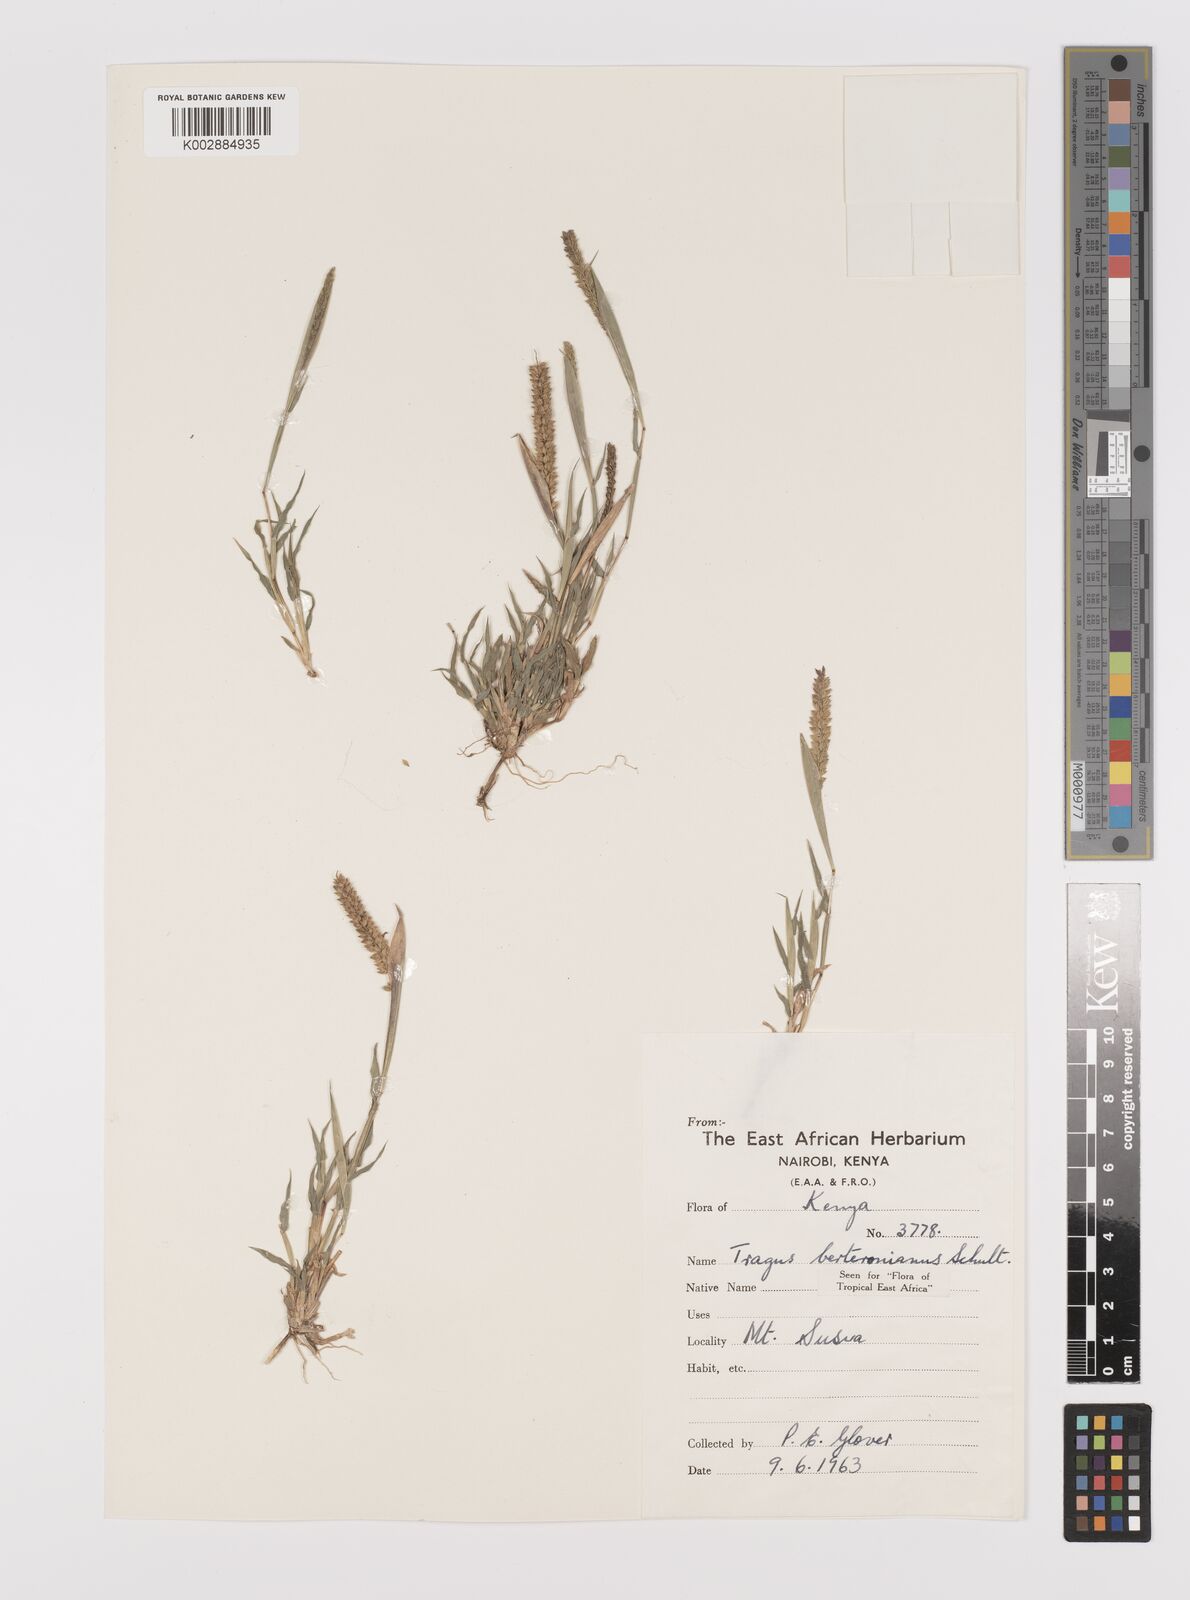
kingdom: Plantae
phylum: Tracheophyta
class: Liliopsida
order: Poales
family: Poaceae
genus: Tragus
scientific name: Tragus berteronianus
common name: African bur-grass
